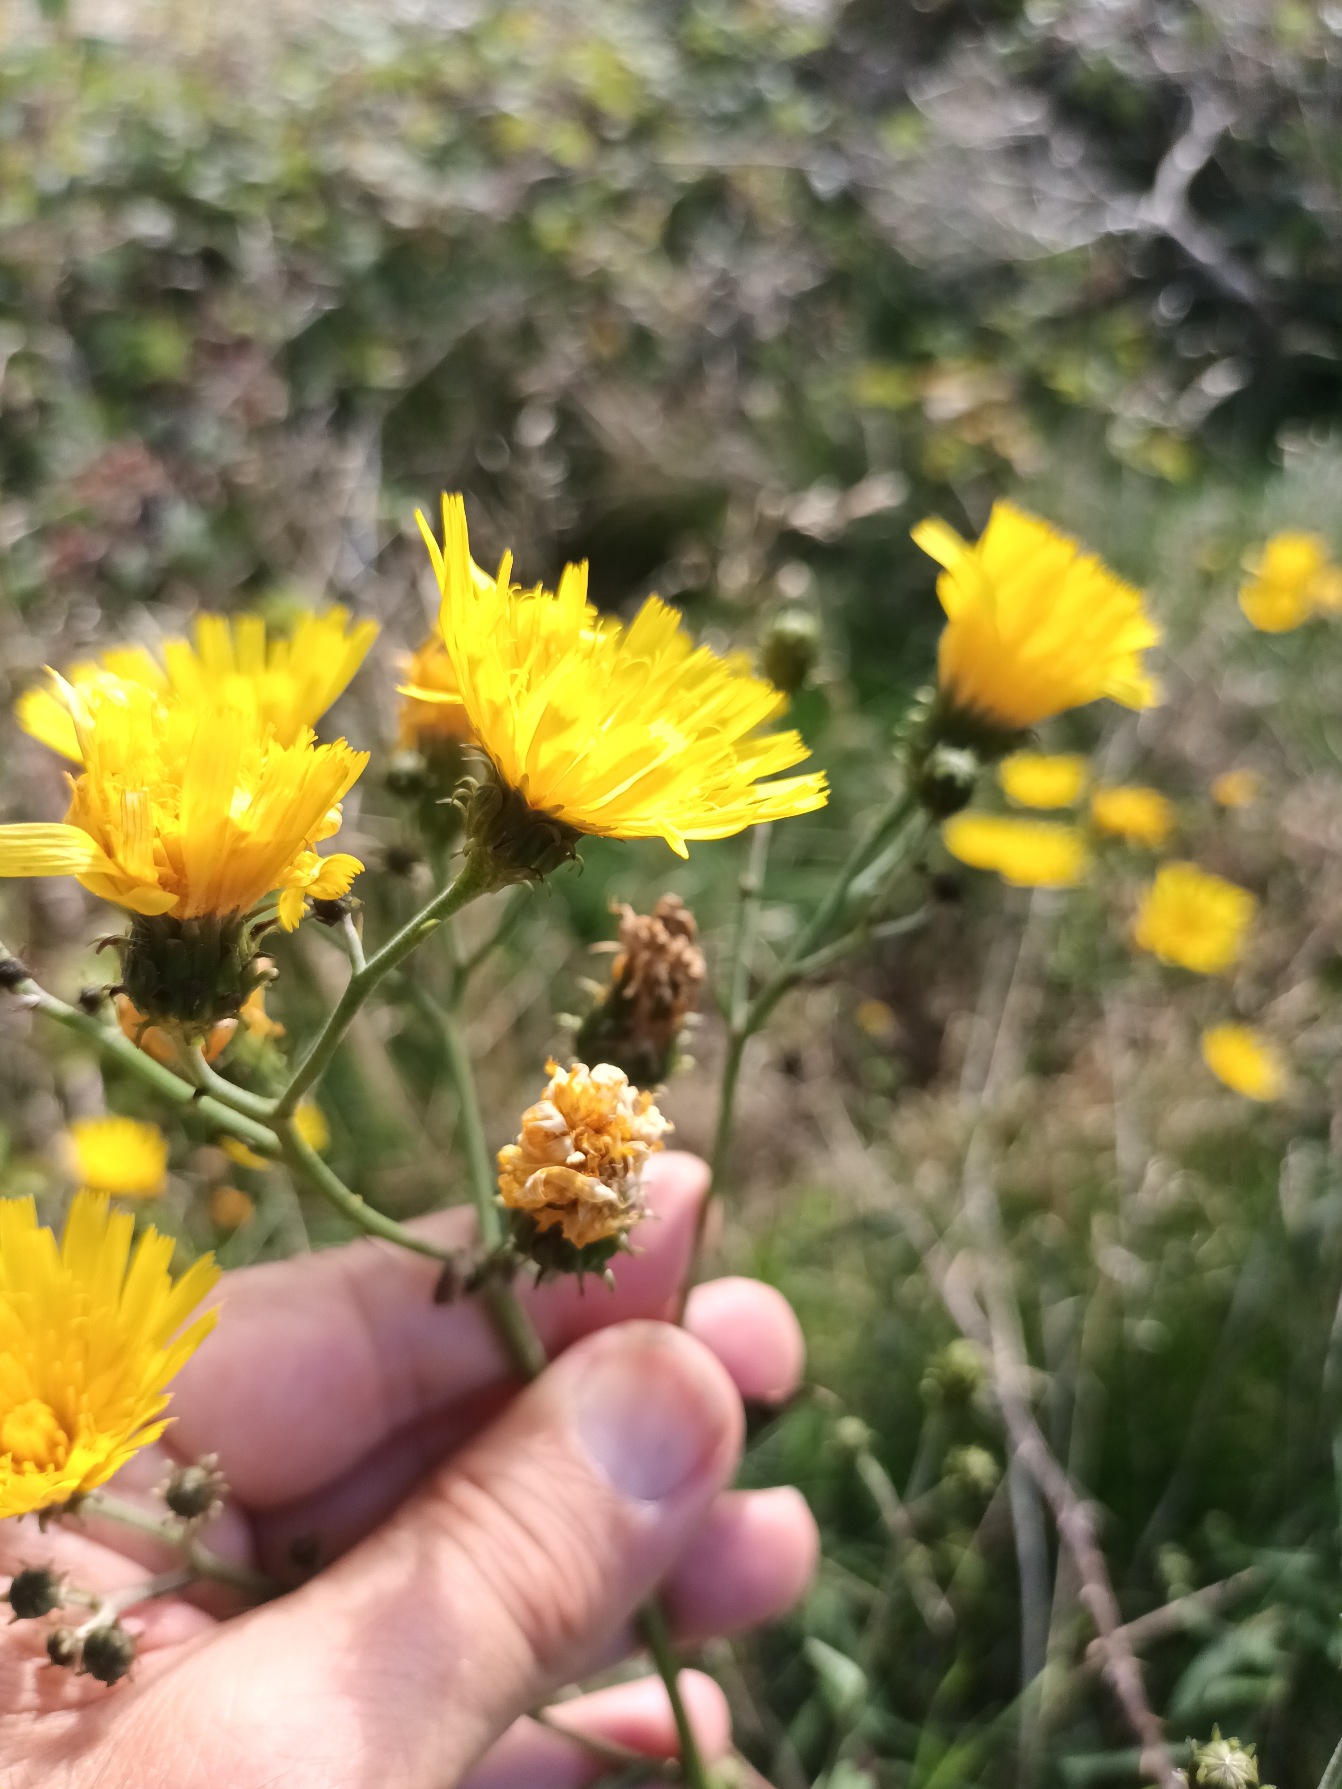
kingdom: Plantae
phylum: Tracheophyta
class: Magnoliopsida
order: Asterales
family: Asteraceae
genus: Hieracium
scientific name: Hieracium umbellatum
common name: Smalbladet høgeurt
